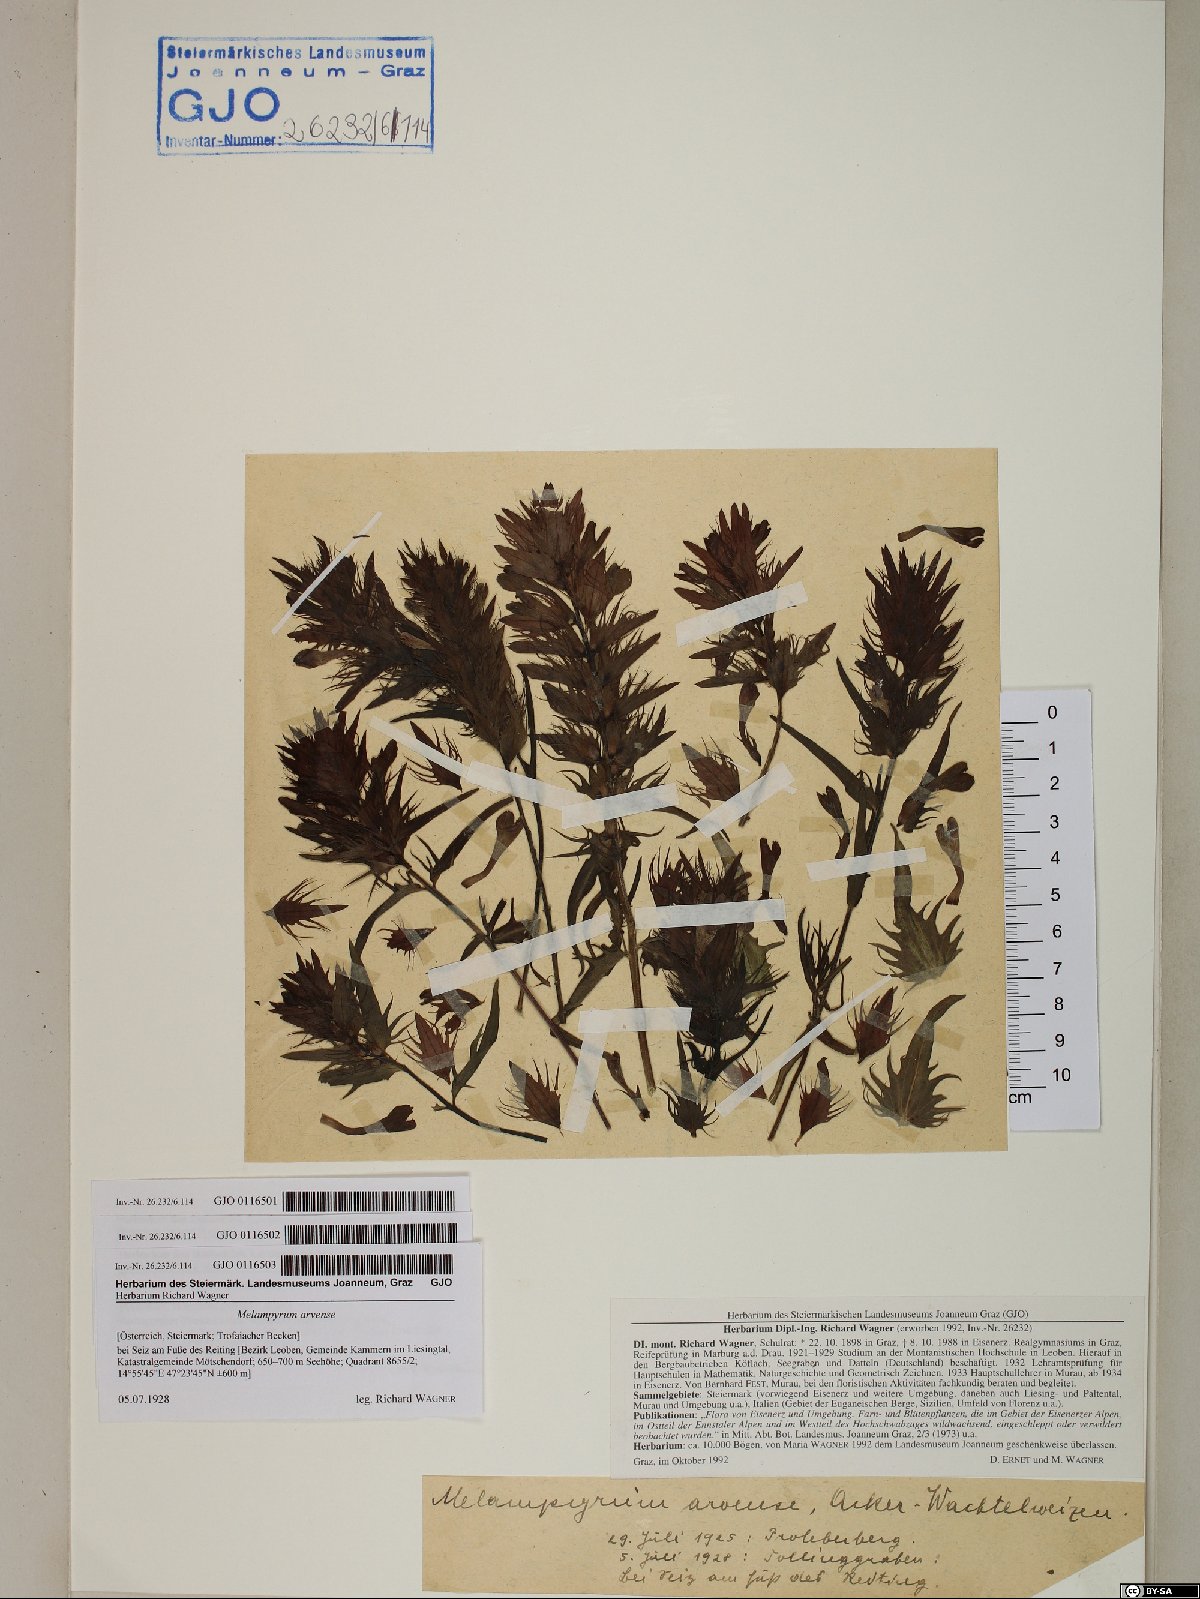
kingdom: Plantae
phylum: Tracheophyta
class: Magnoliopsida
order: Lamiales
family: Orobanchaceae
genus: Melampyrum
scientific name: Melampyrum arvense
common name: Field cow-wheat
